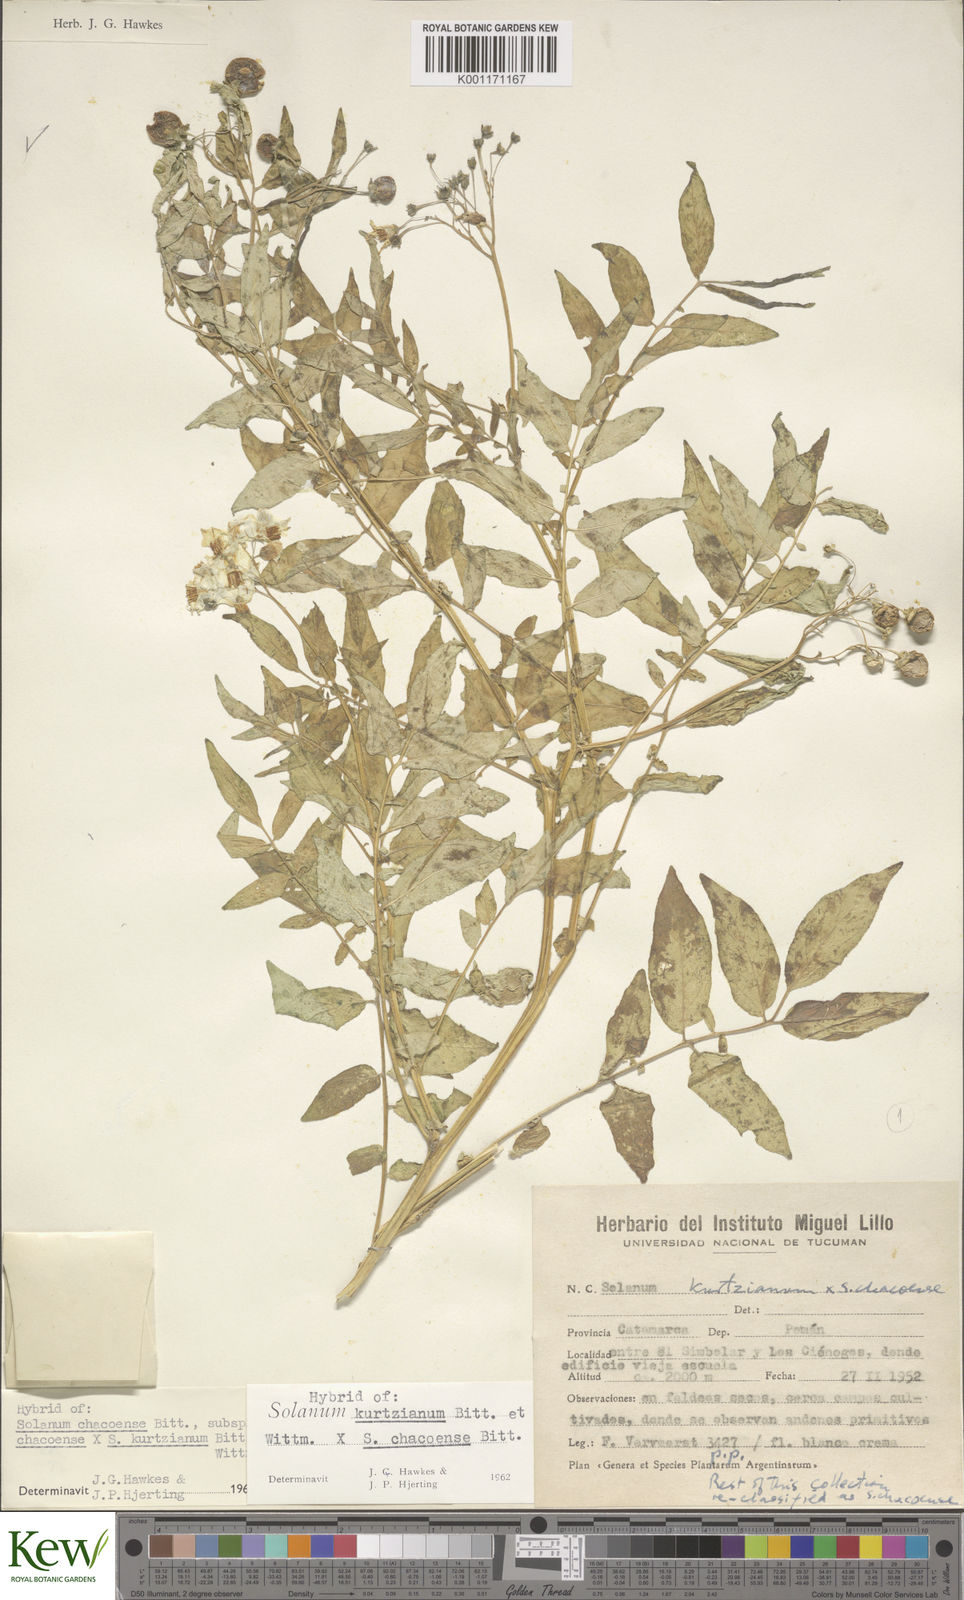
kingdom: Plantae
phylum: Tracheophyta
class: Magnoliopsida
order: Solanales
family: Solanaceae
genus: Solanum
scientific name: Solanum chacoense
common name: Chaco potato
